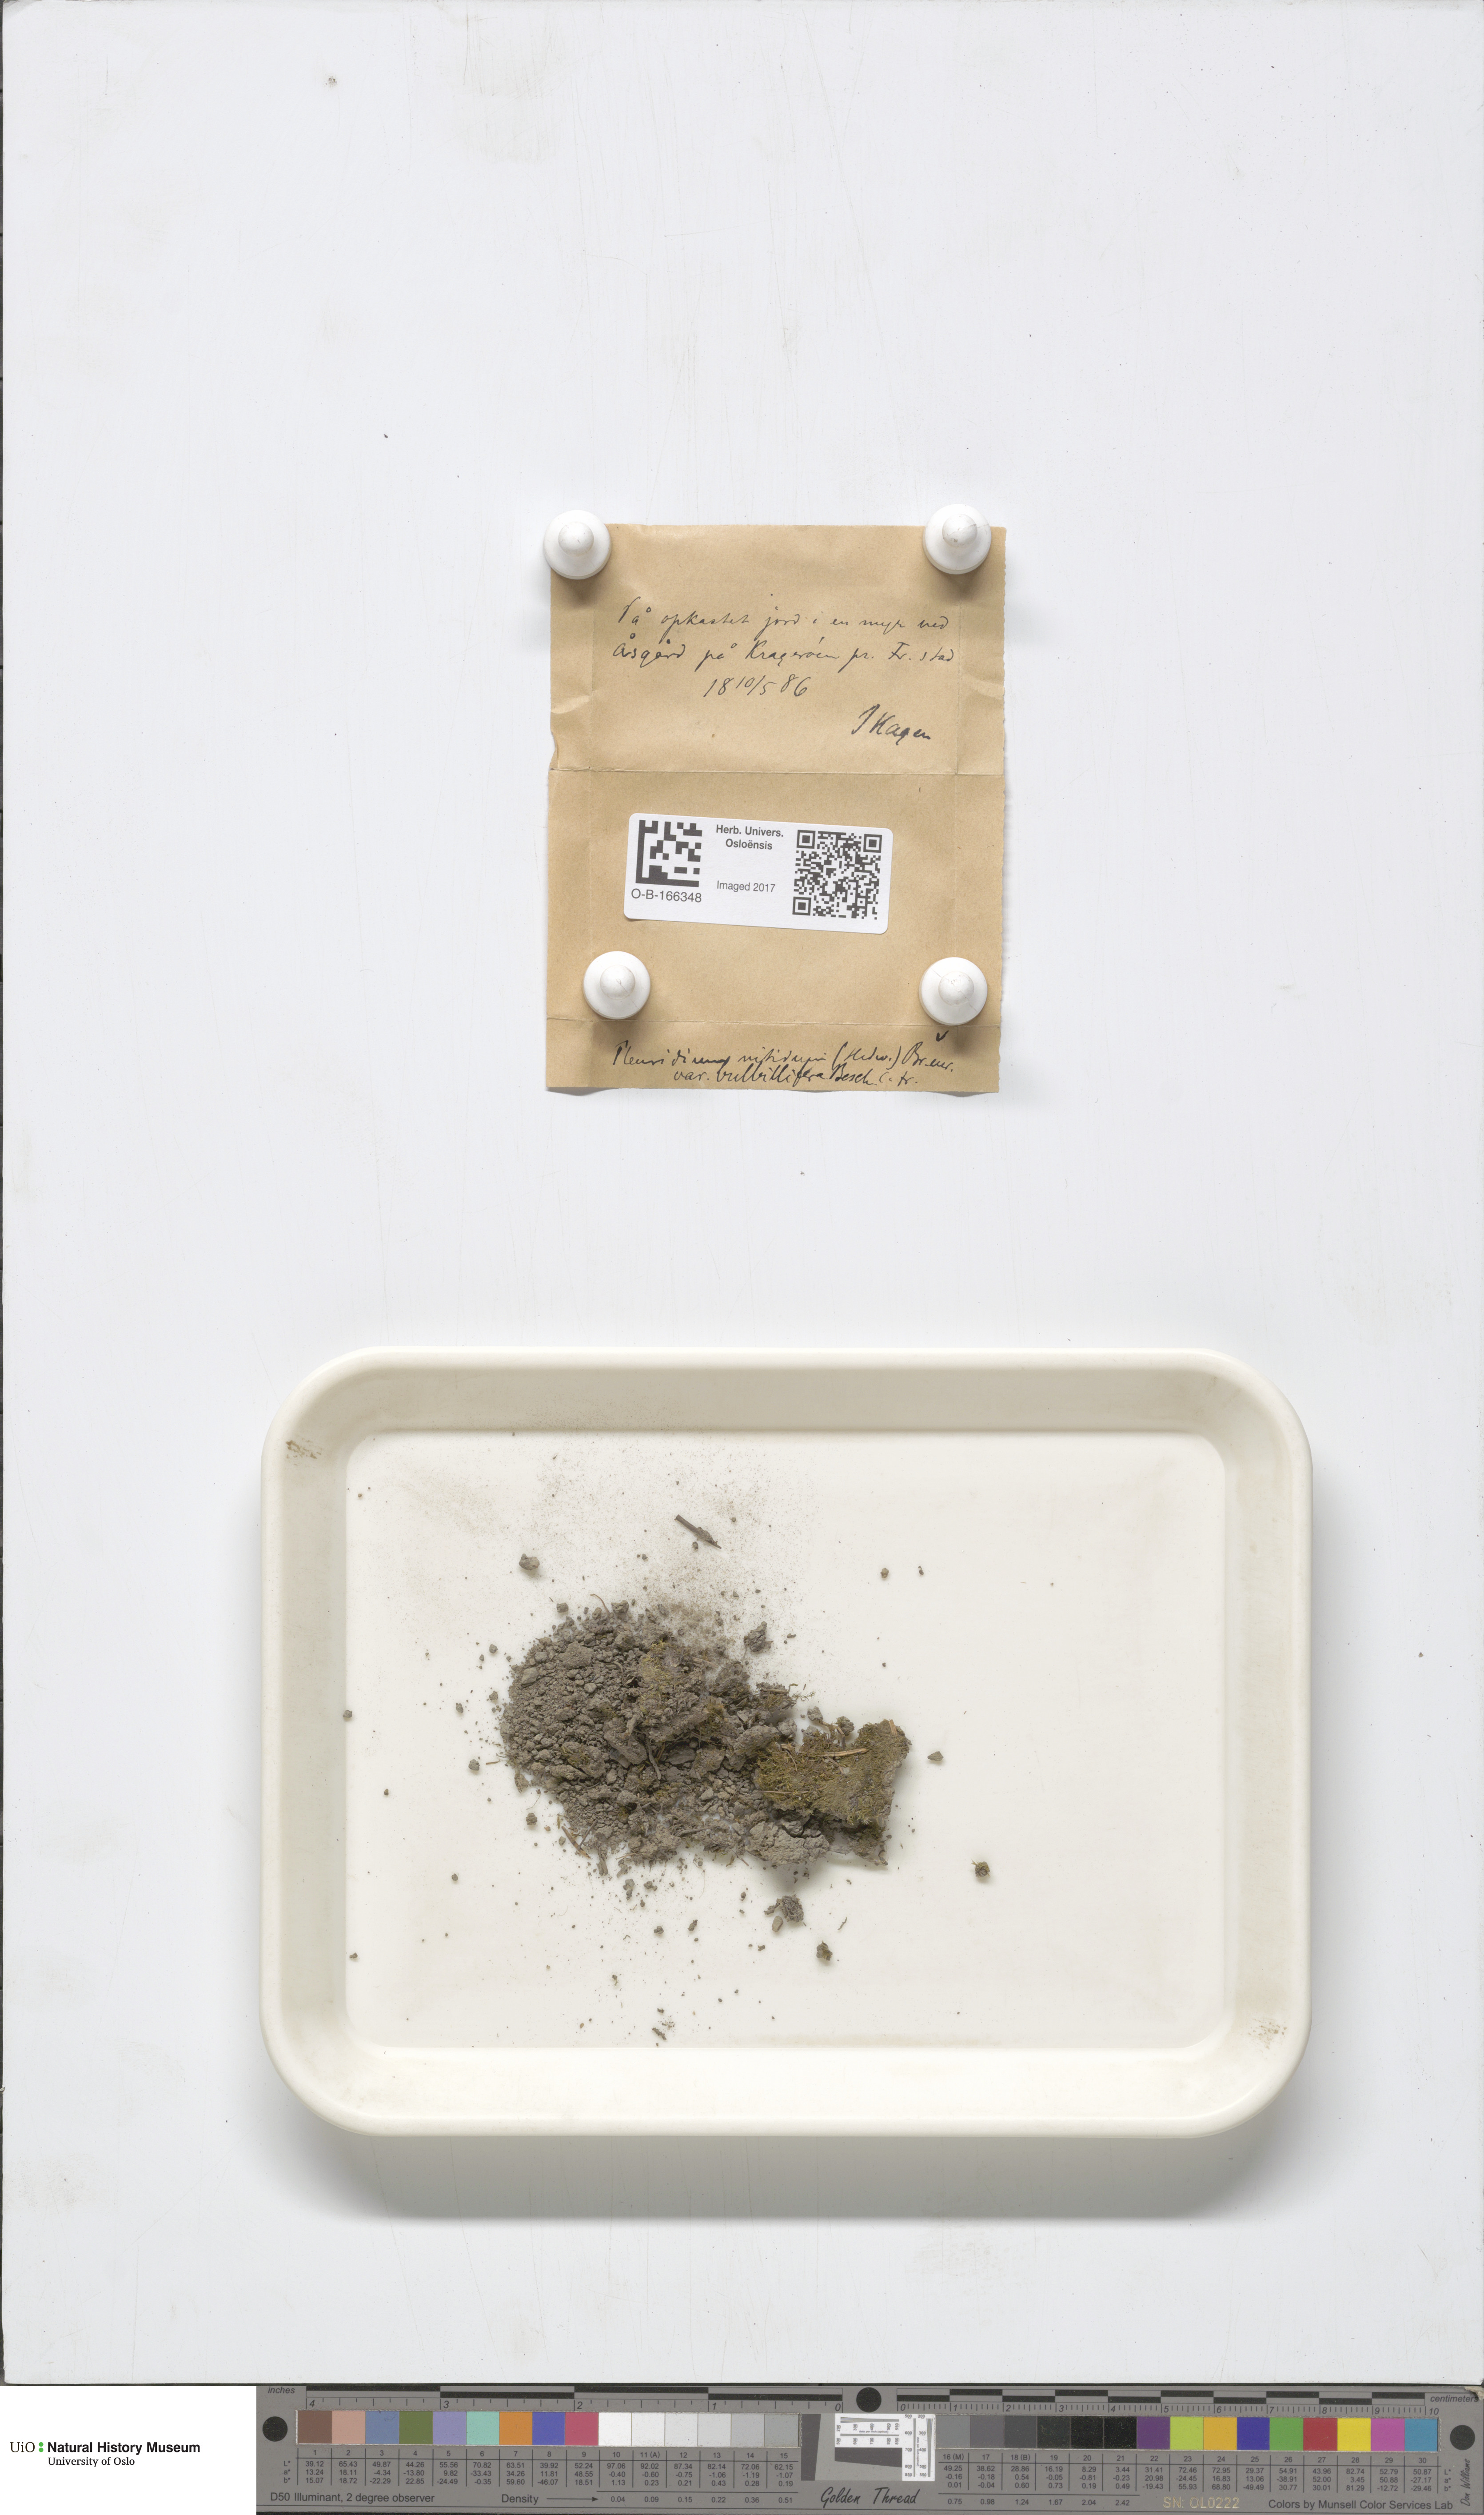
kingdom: Plantae
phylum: Bryophyta
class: Bryopsida
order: Dicranales
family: Ditrichaceae
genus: Pseudephemerum
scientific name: Pseudephemerum nitidum
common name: Delicate earth-moss
